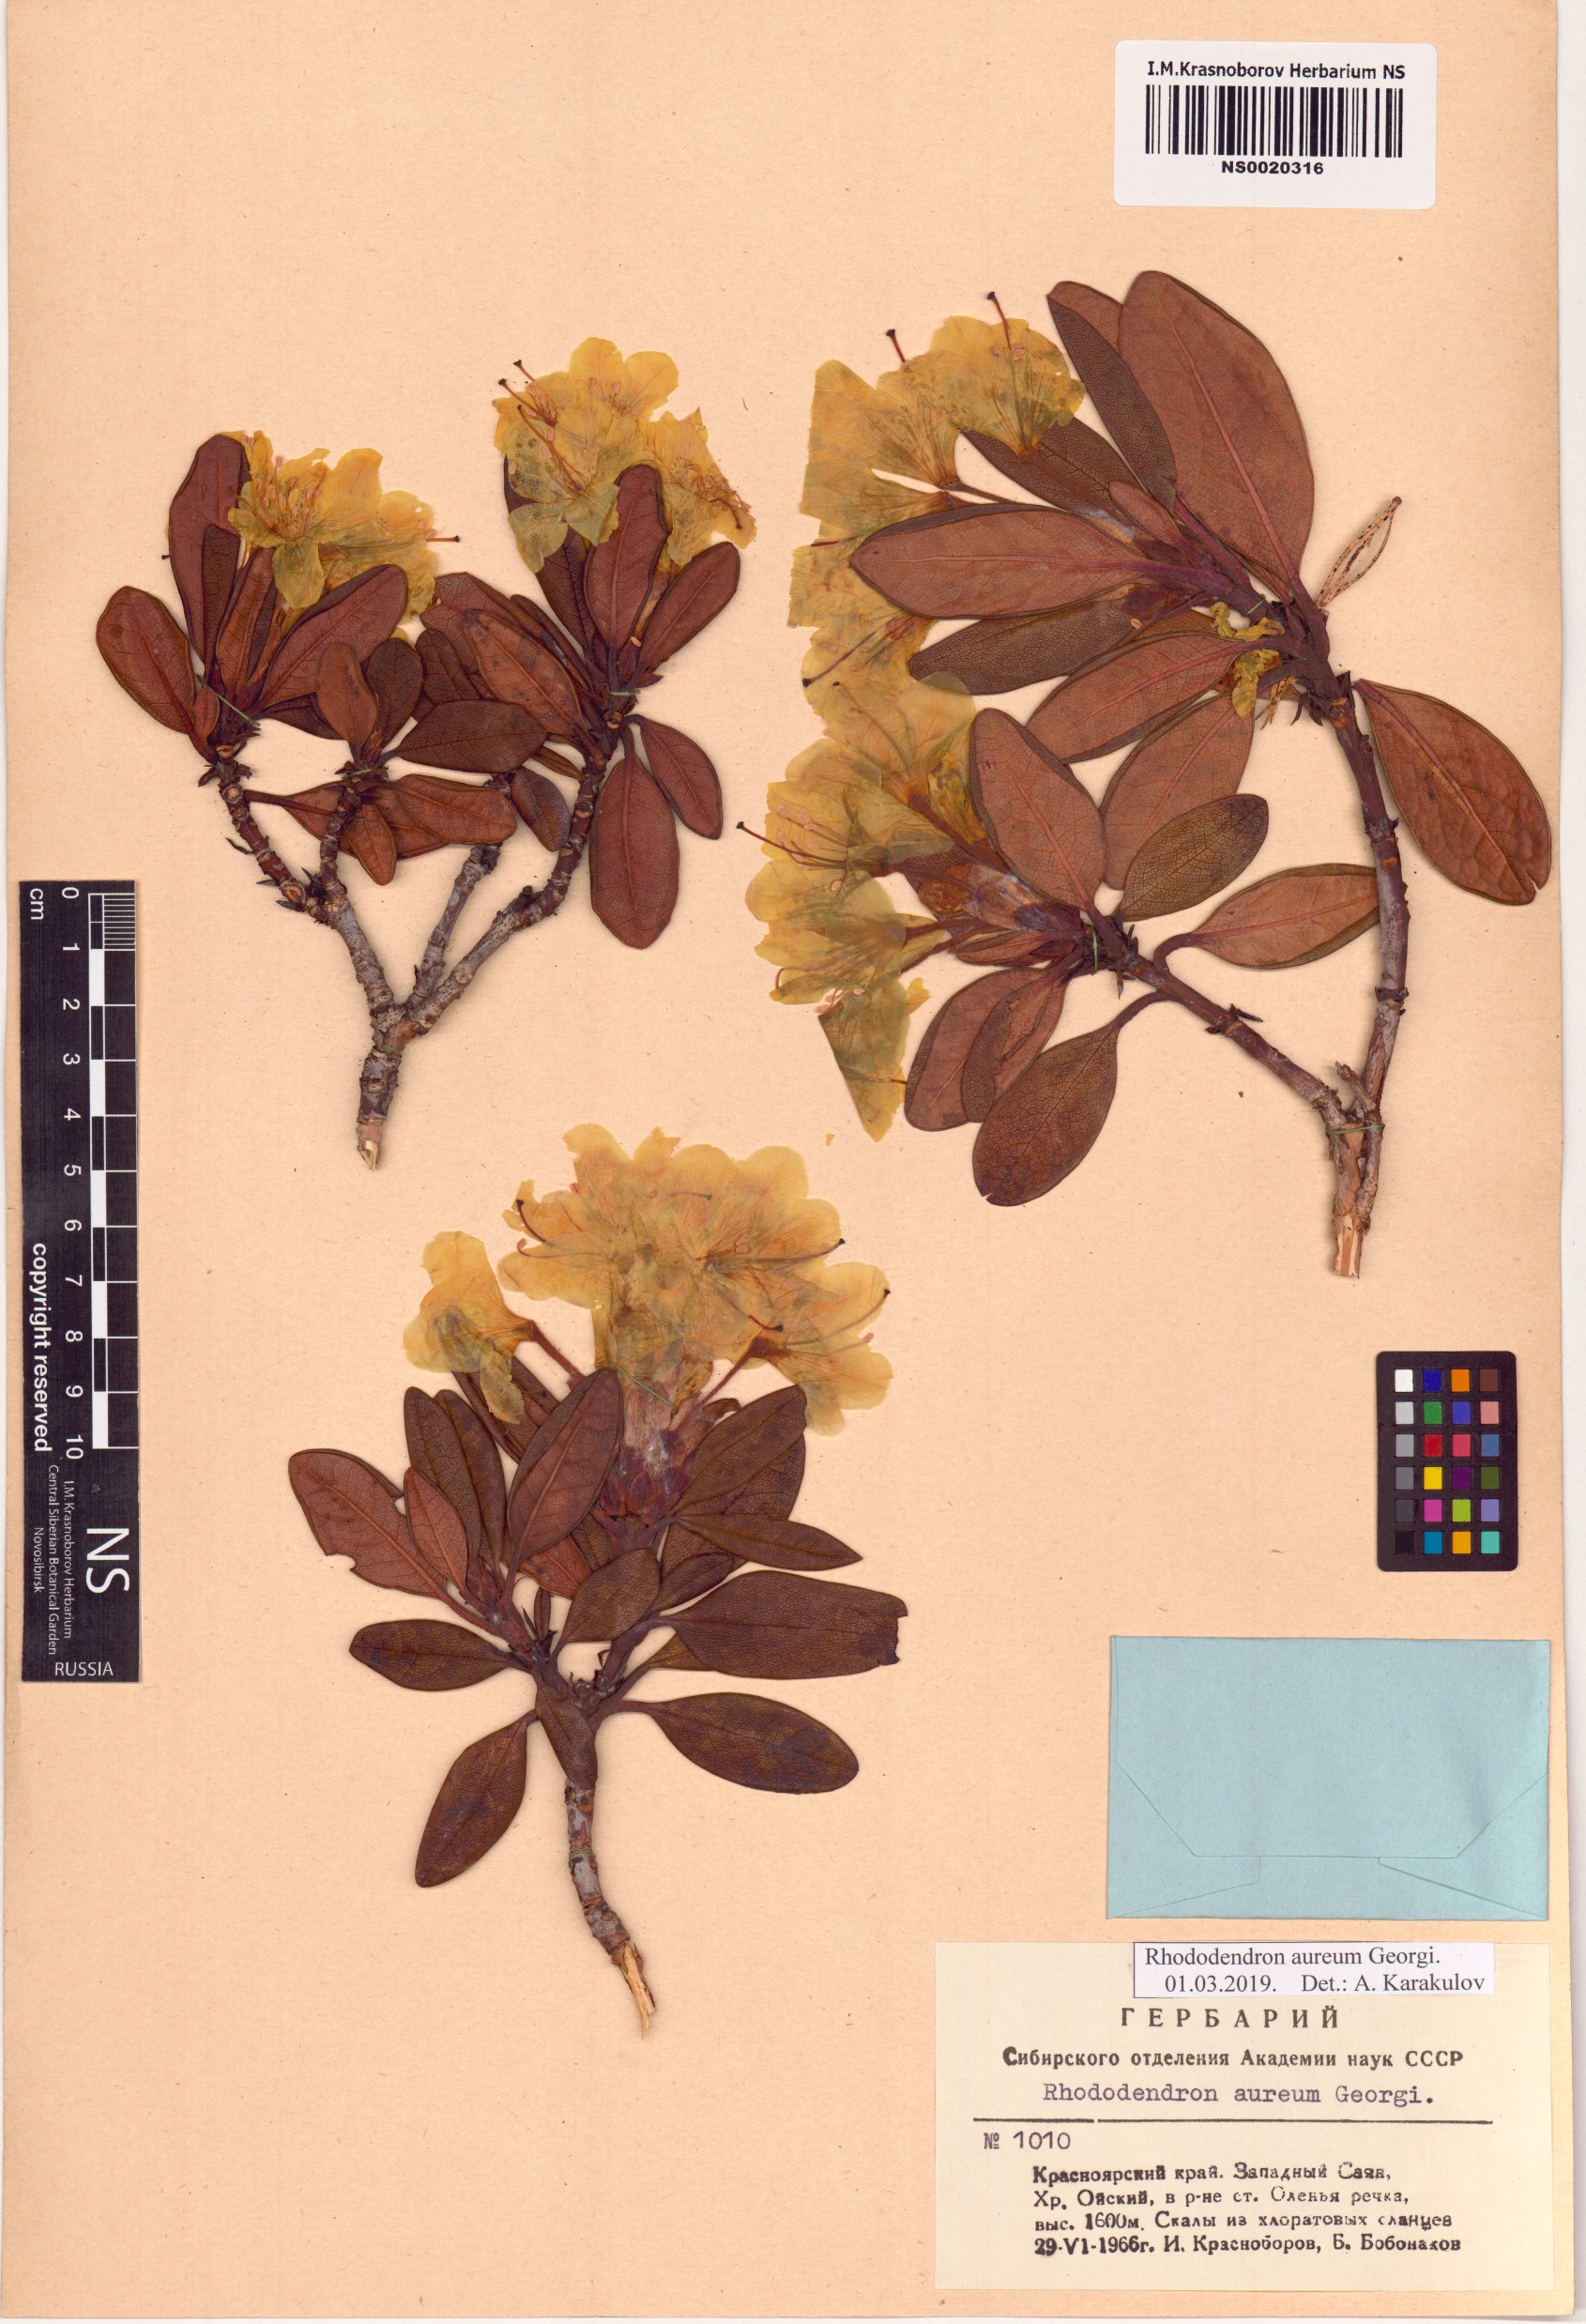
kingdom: Plantae
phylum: Tracheophyta
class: Magnoliopsida
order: Ericales
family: Ericaceae
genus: Rhododendron
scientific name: Rhododendron aureum
